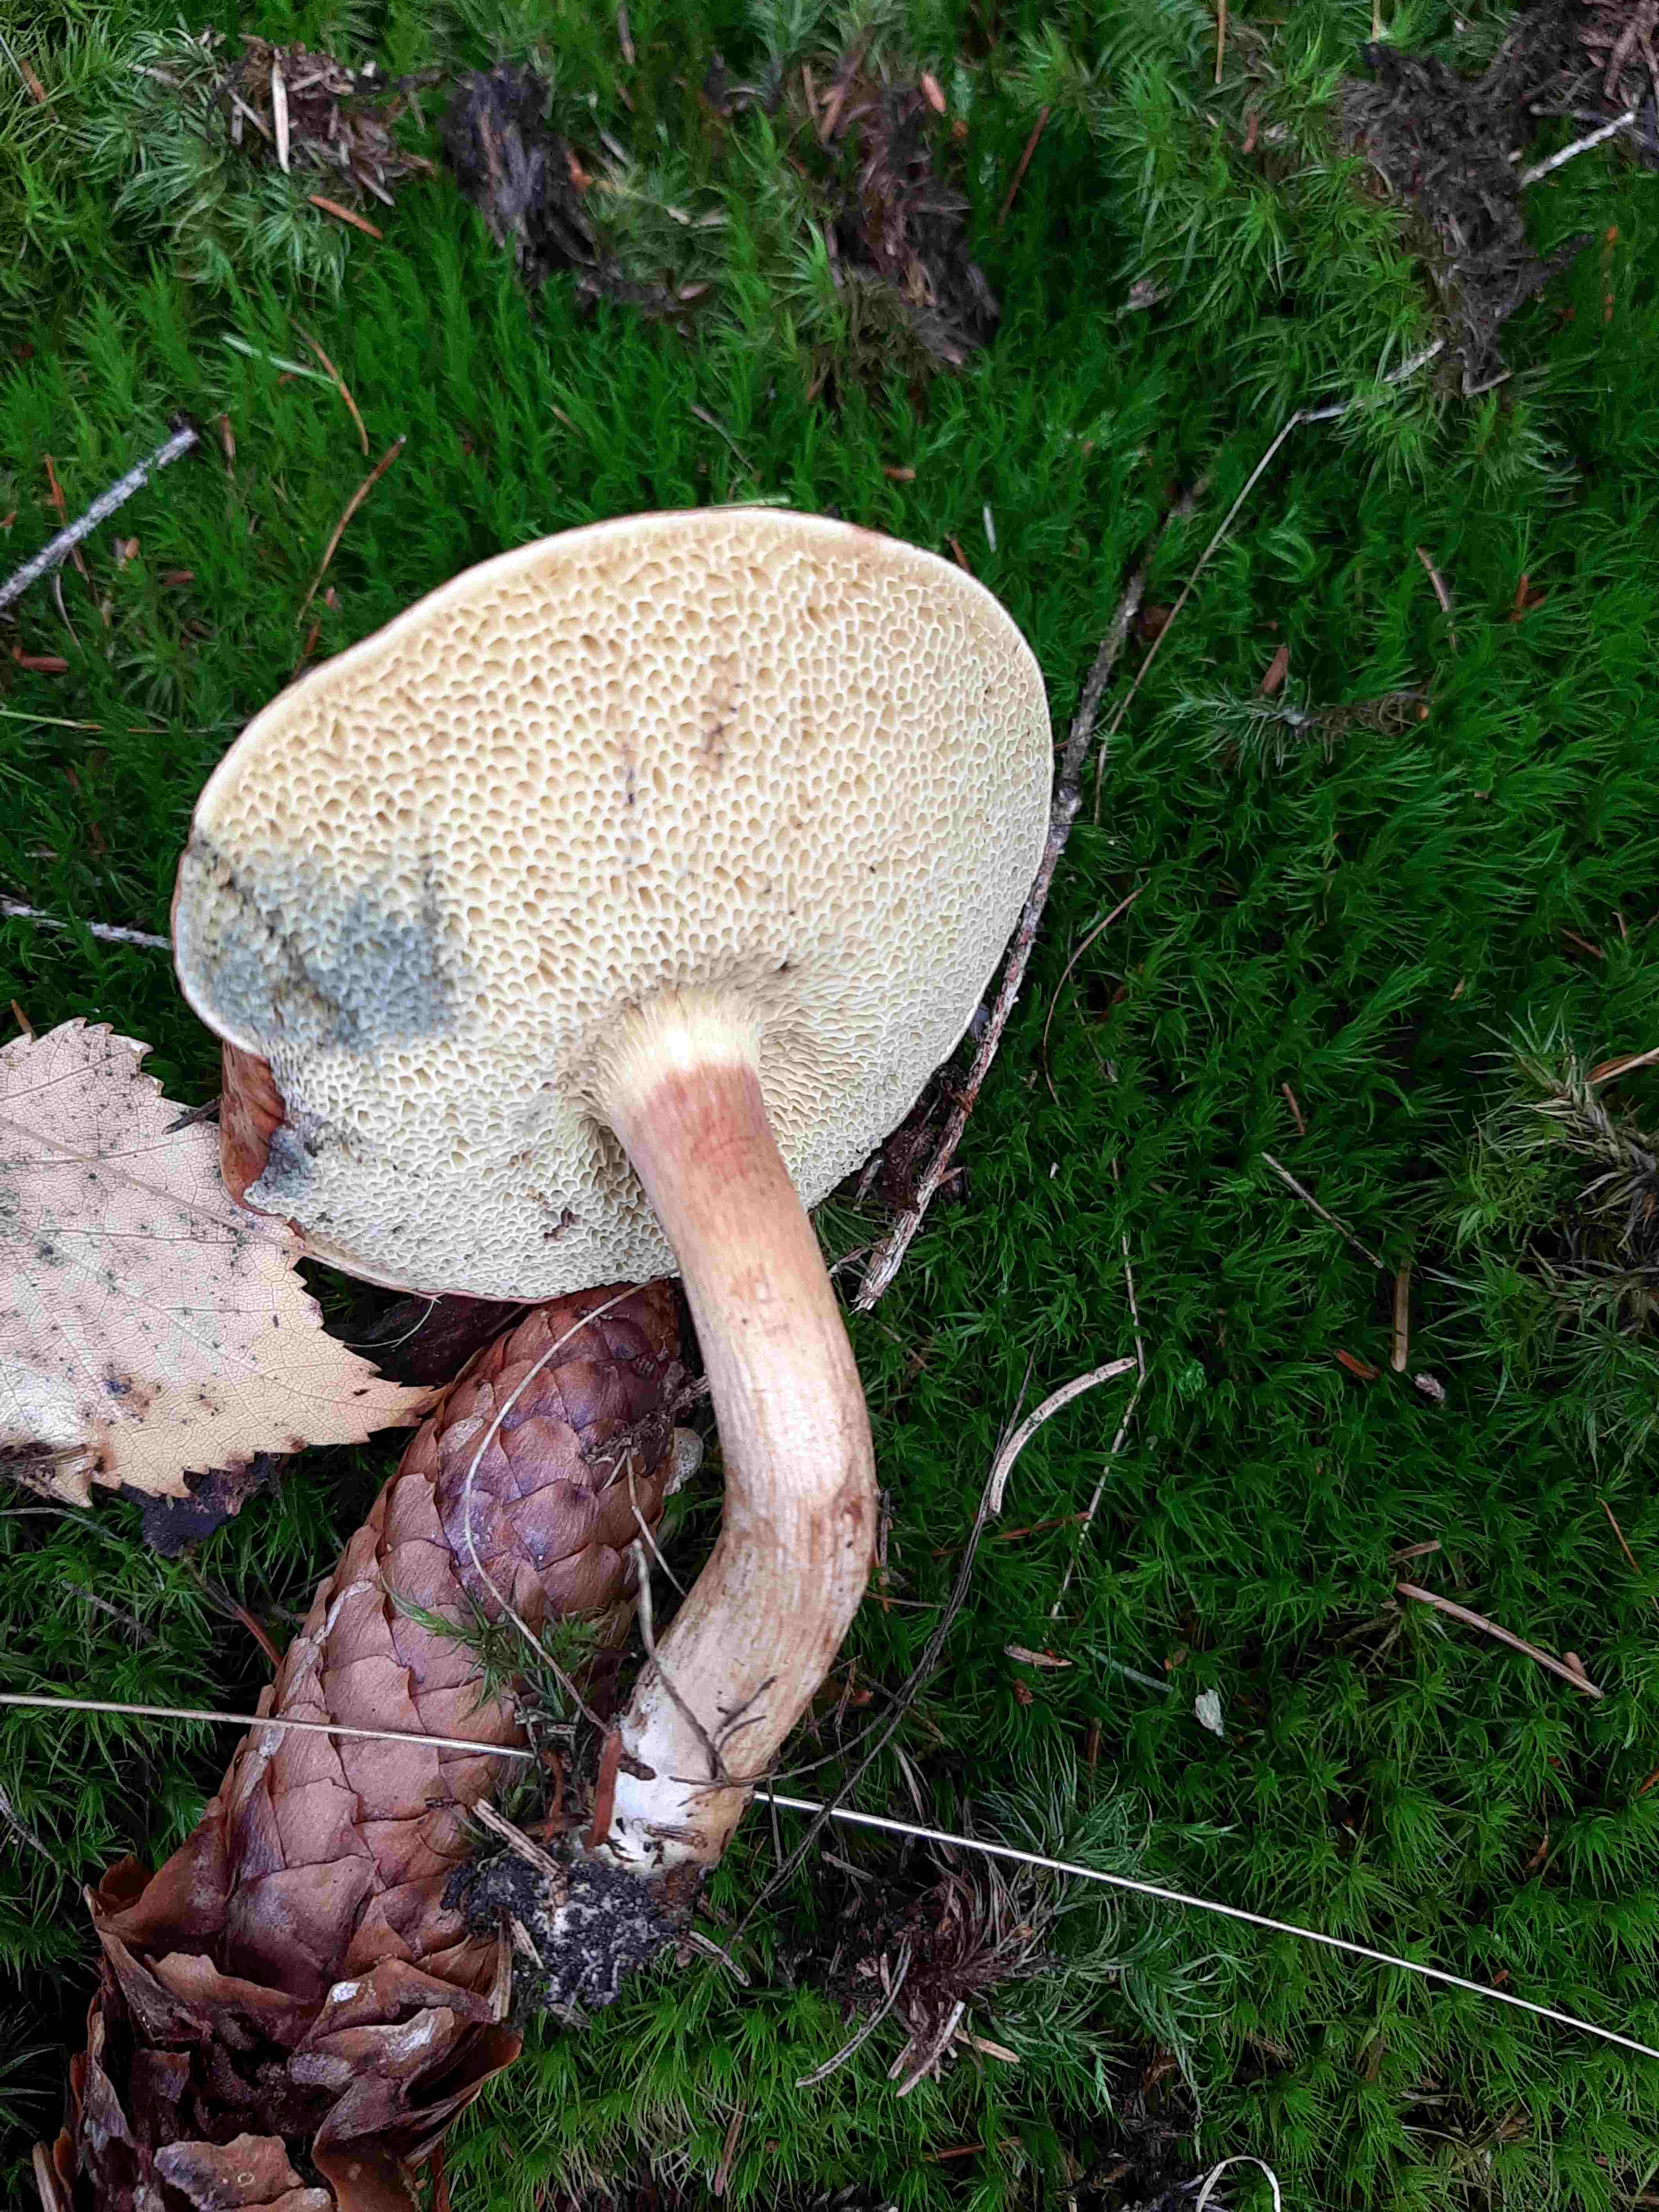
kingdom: Fungi
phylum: Basidiomycota
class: Agaricomycetes
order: Boletales
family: Boletaceae
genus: Imleria
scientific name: Imleria badia
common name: brunstokket rørhat
